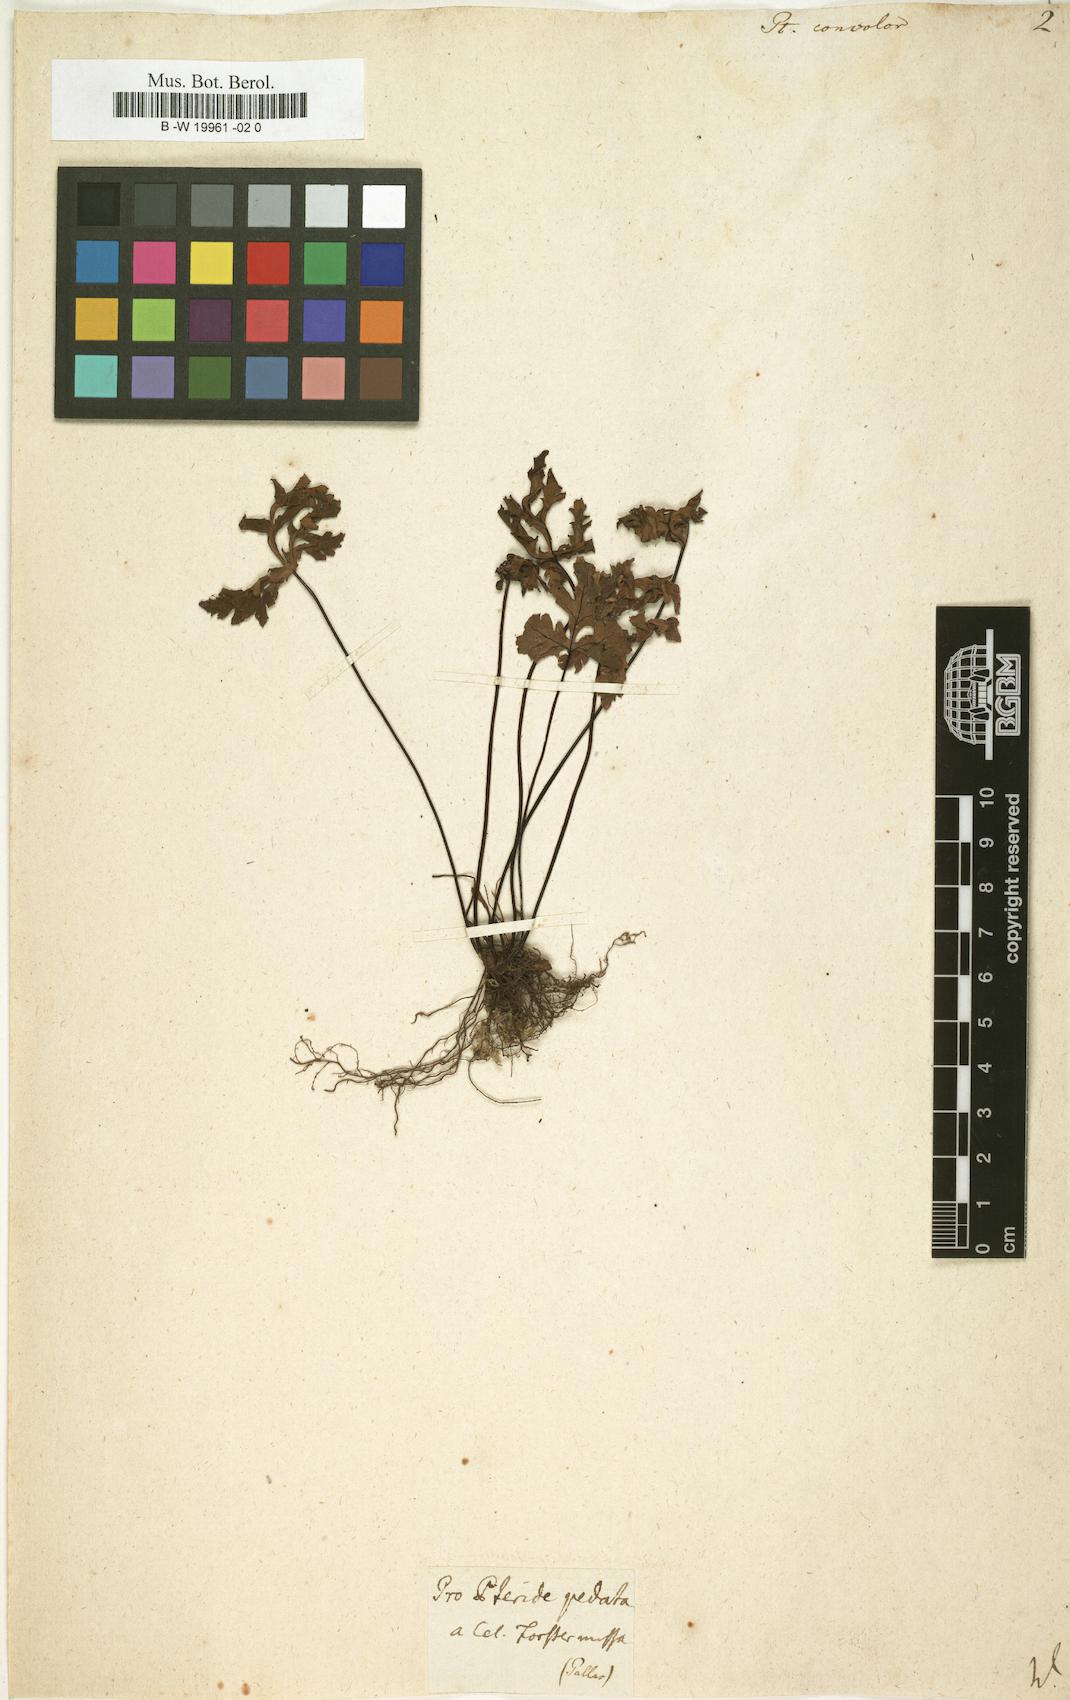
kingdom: Plantae
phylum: Tracheophyta
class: Polypodiopsida
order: Polypodiales
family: Pteridaceae
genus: Doryopteris
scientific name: Doryopteris concolor
